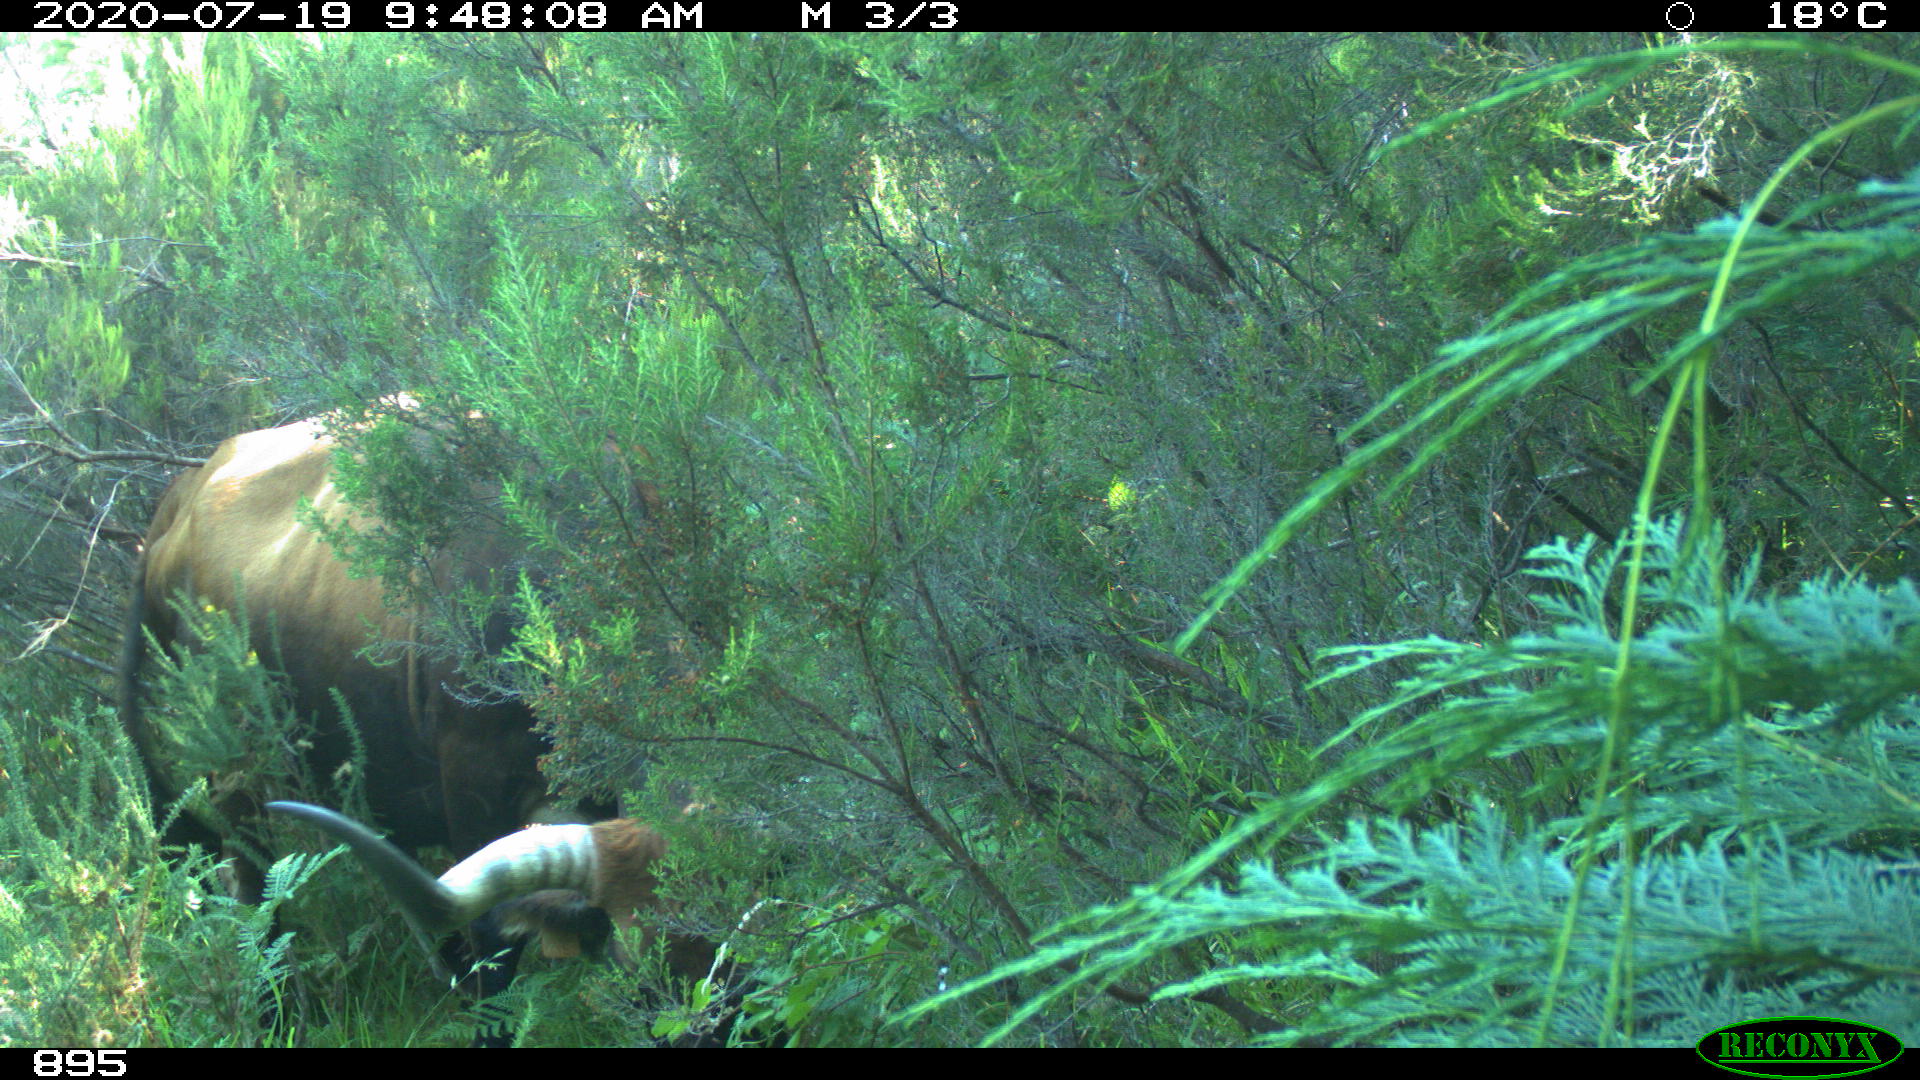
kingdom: Animalia
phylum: Chordata
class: Mammalia
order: Artiodactyla
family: Bovidae
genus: Bos
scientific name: Bos taurus
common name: Domesticated cattle
